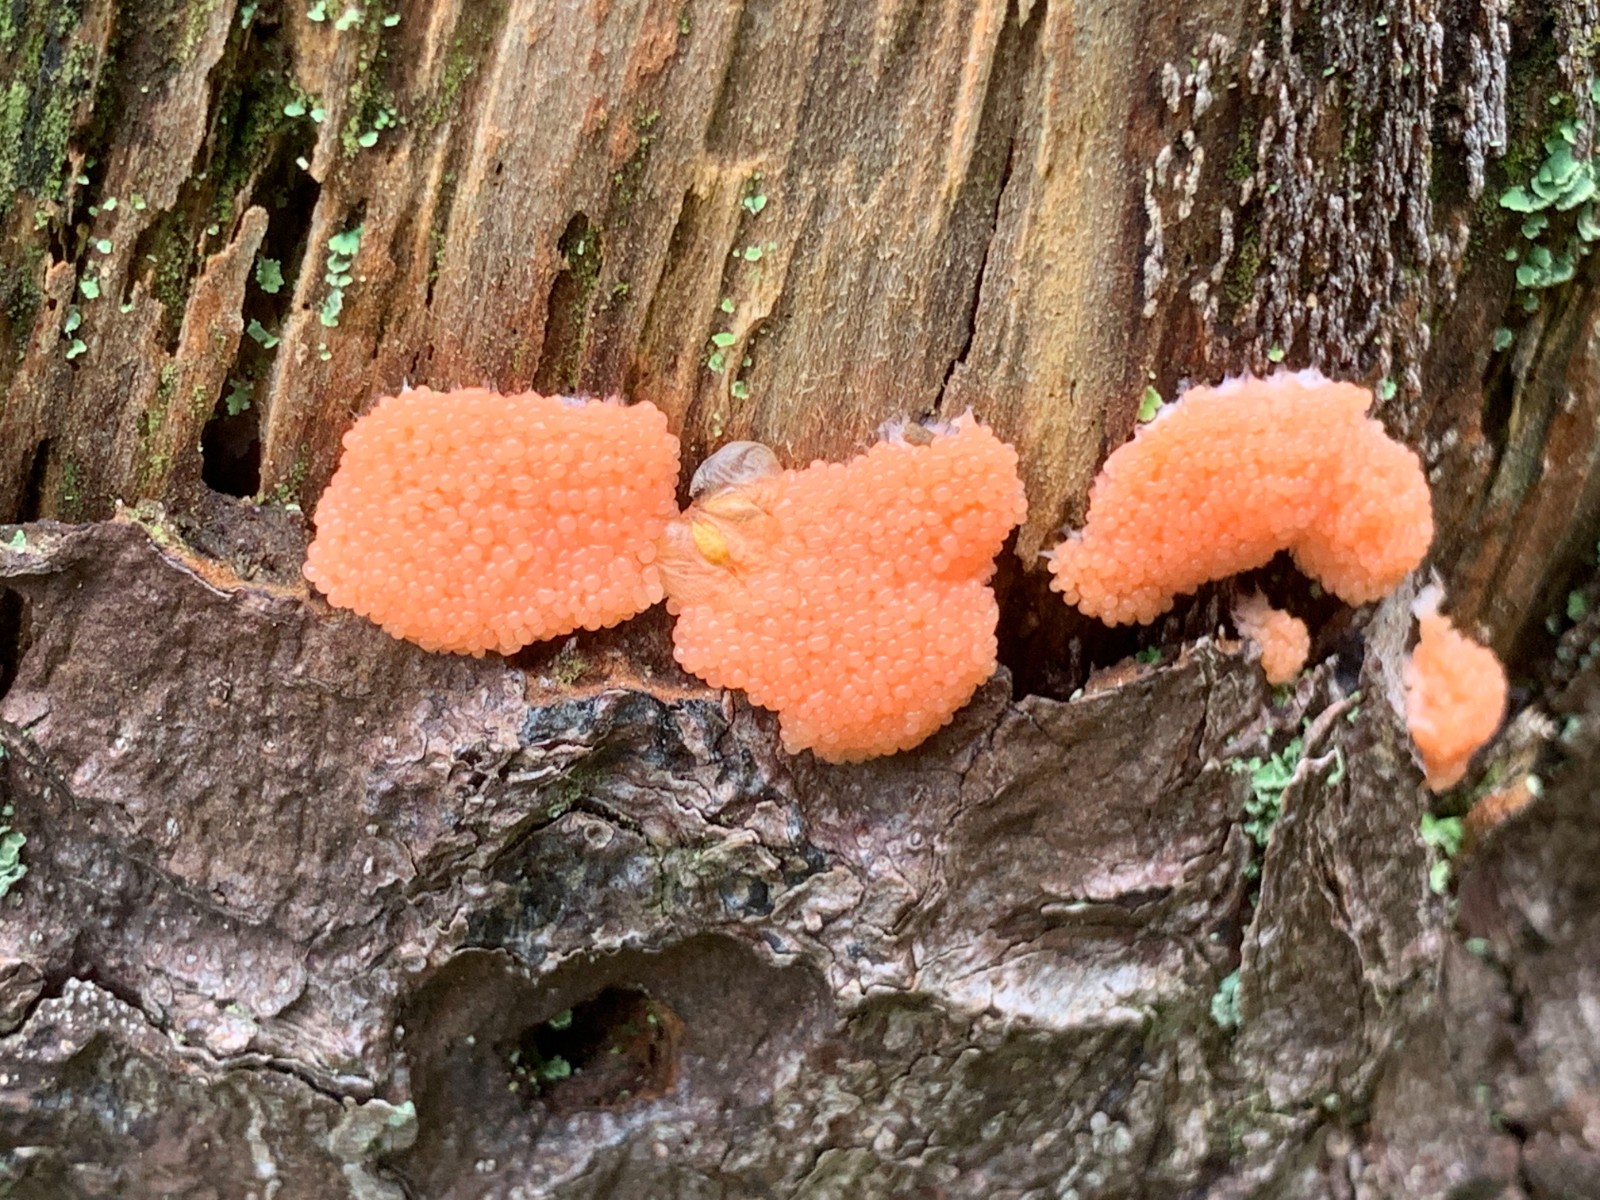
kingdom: Protozoa
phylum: Mycetozoa
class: Myxomycetes
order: Cribrariales
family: Tubiferaceae
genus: Tubifera
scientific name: Tubifera ferruginosa
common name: kanel-støvrør
